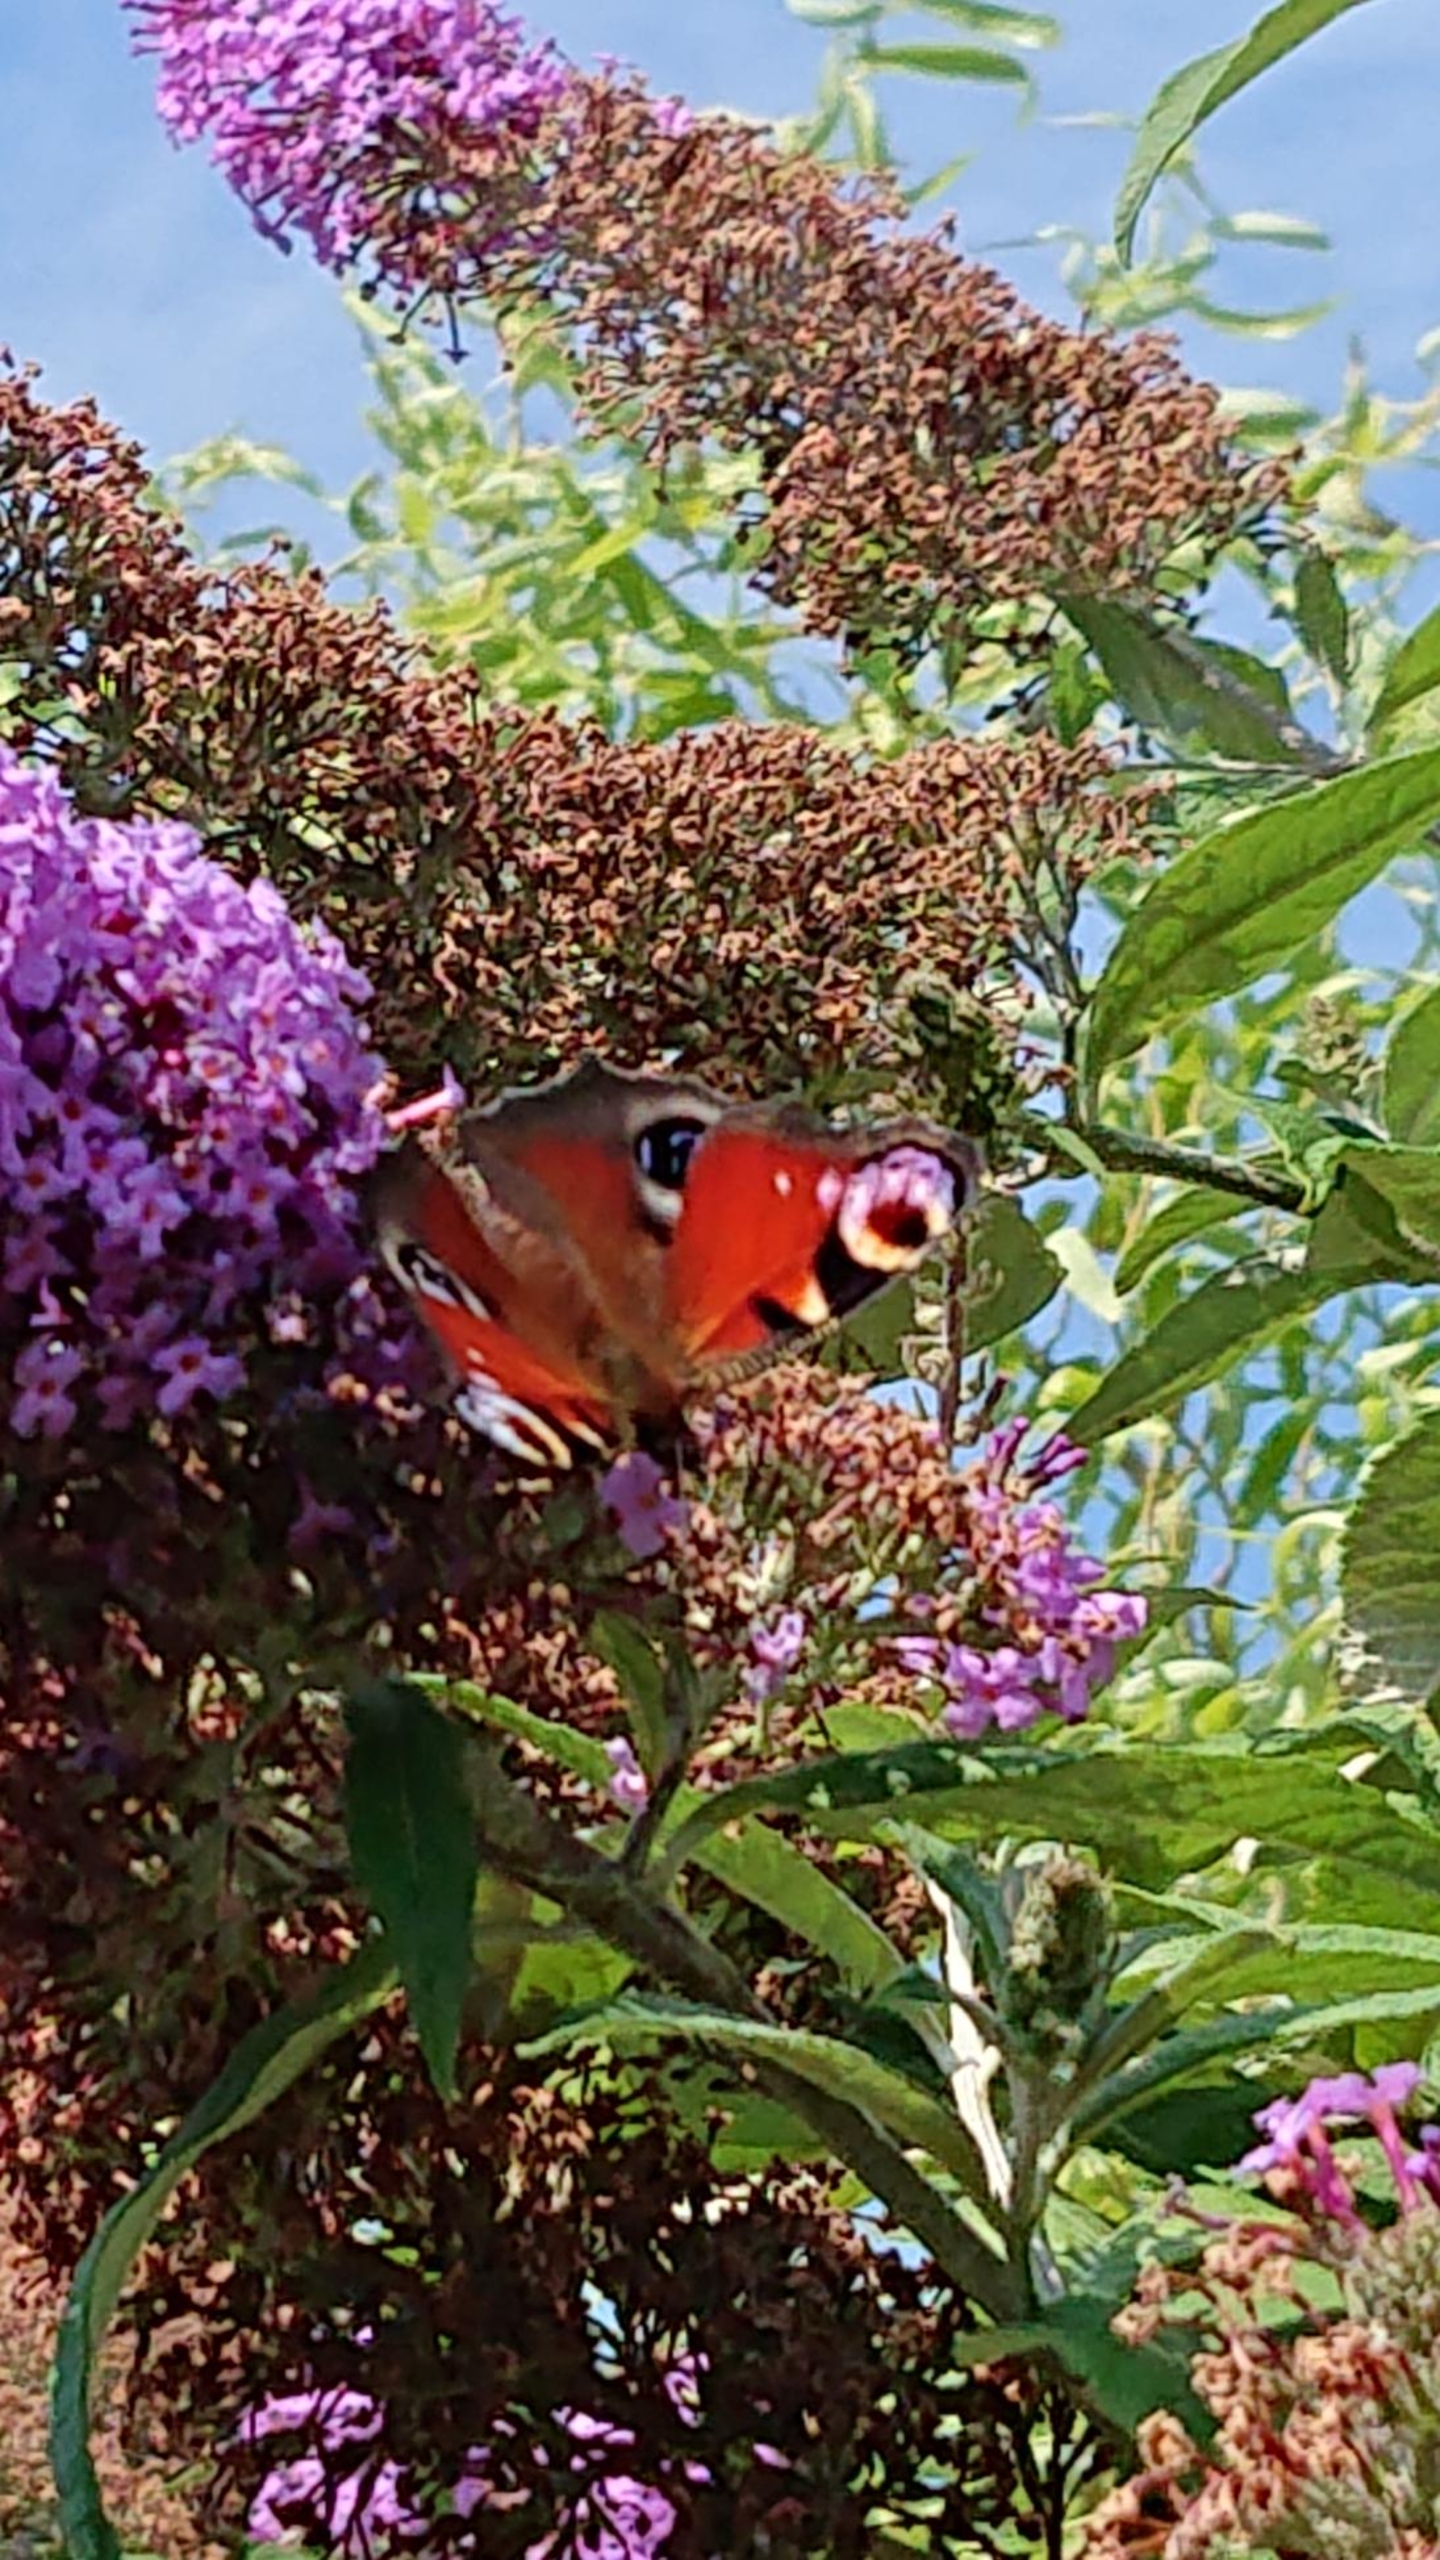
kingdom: Animalia
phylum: Arthropoda
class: Insecta
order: Lepidoptera
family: Nymphalidae
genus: Aglais
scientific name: Aglais io
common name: Dagpåfugleøje
